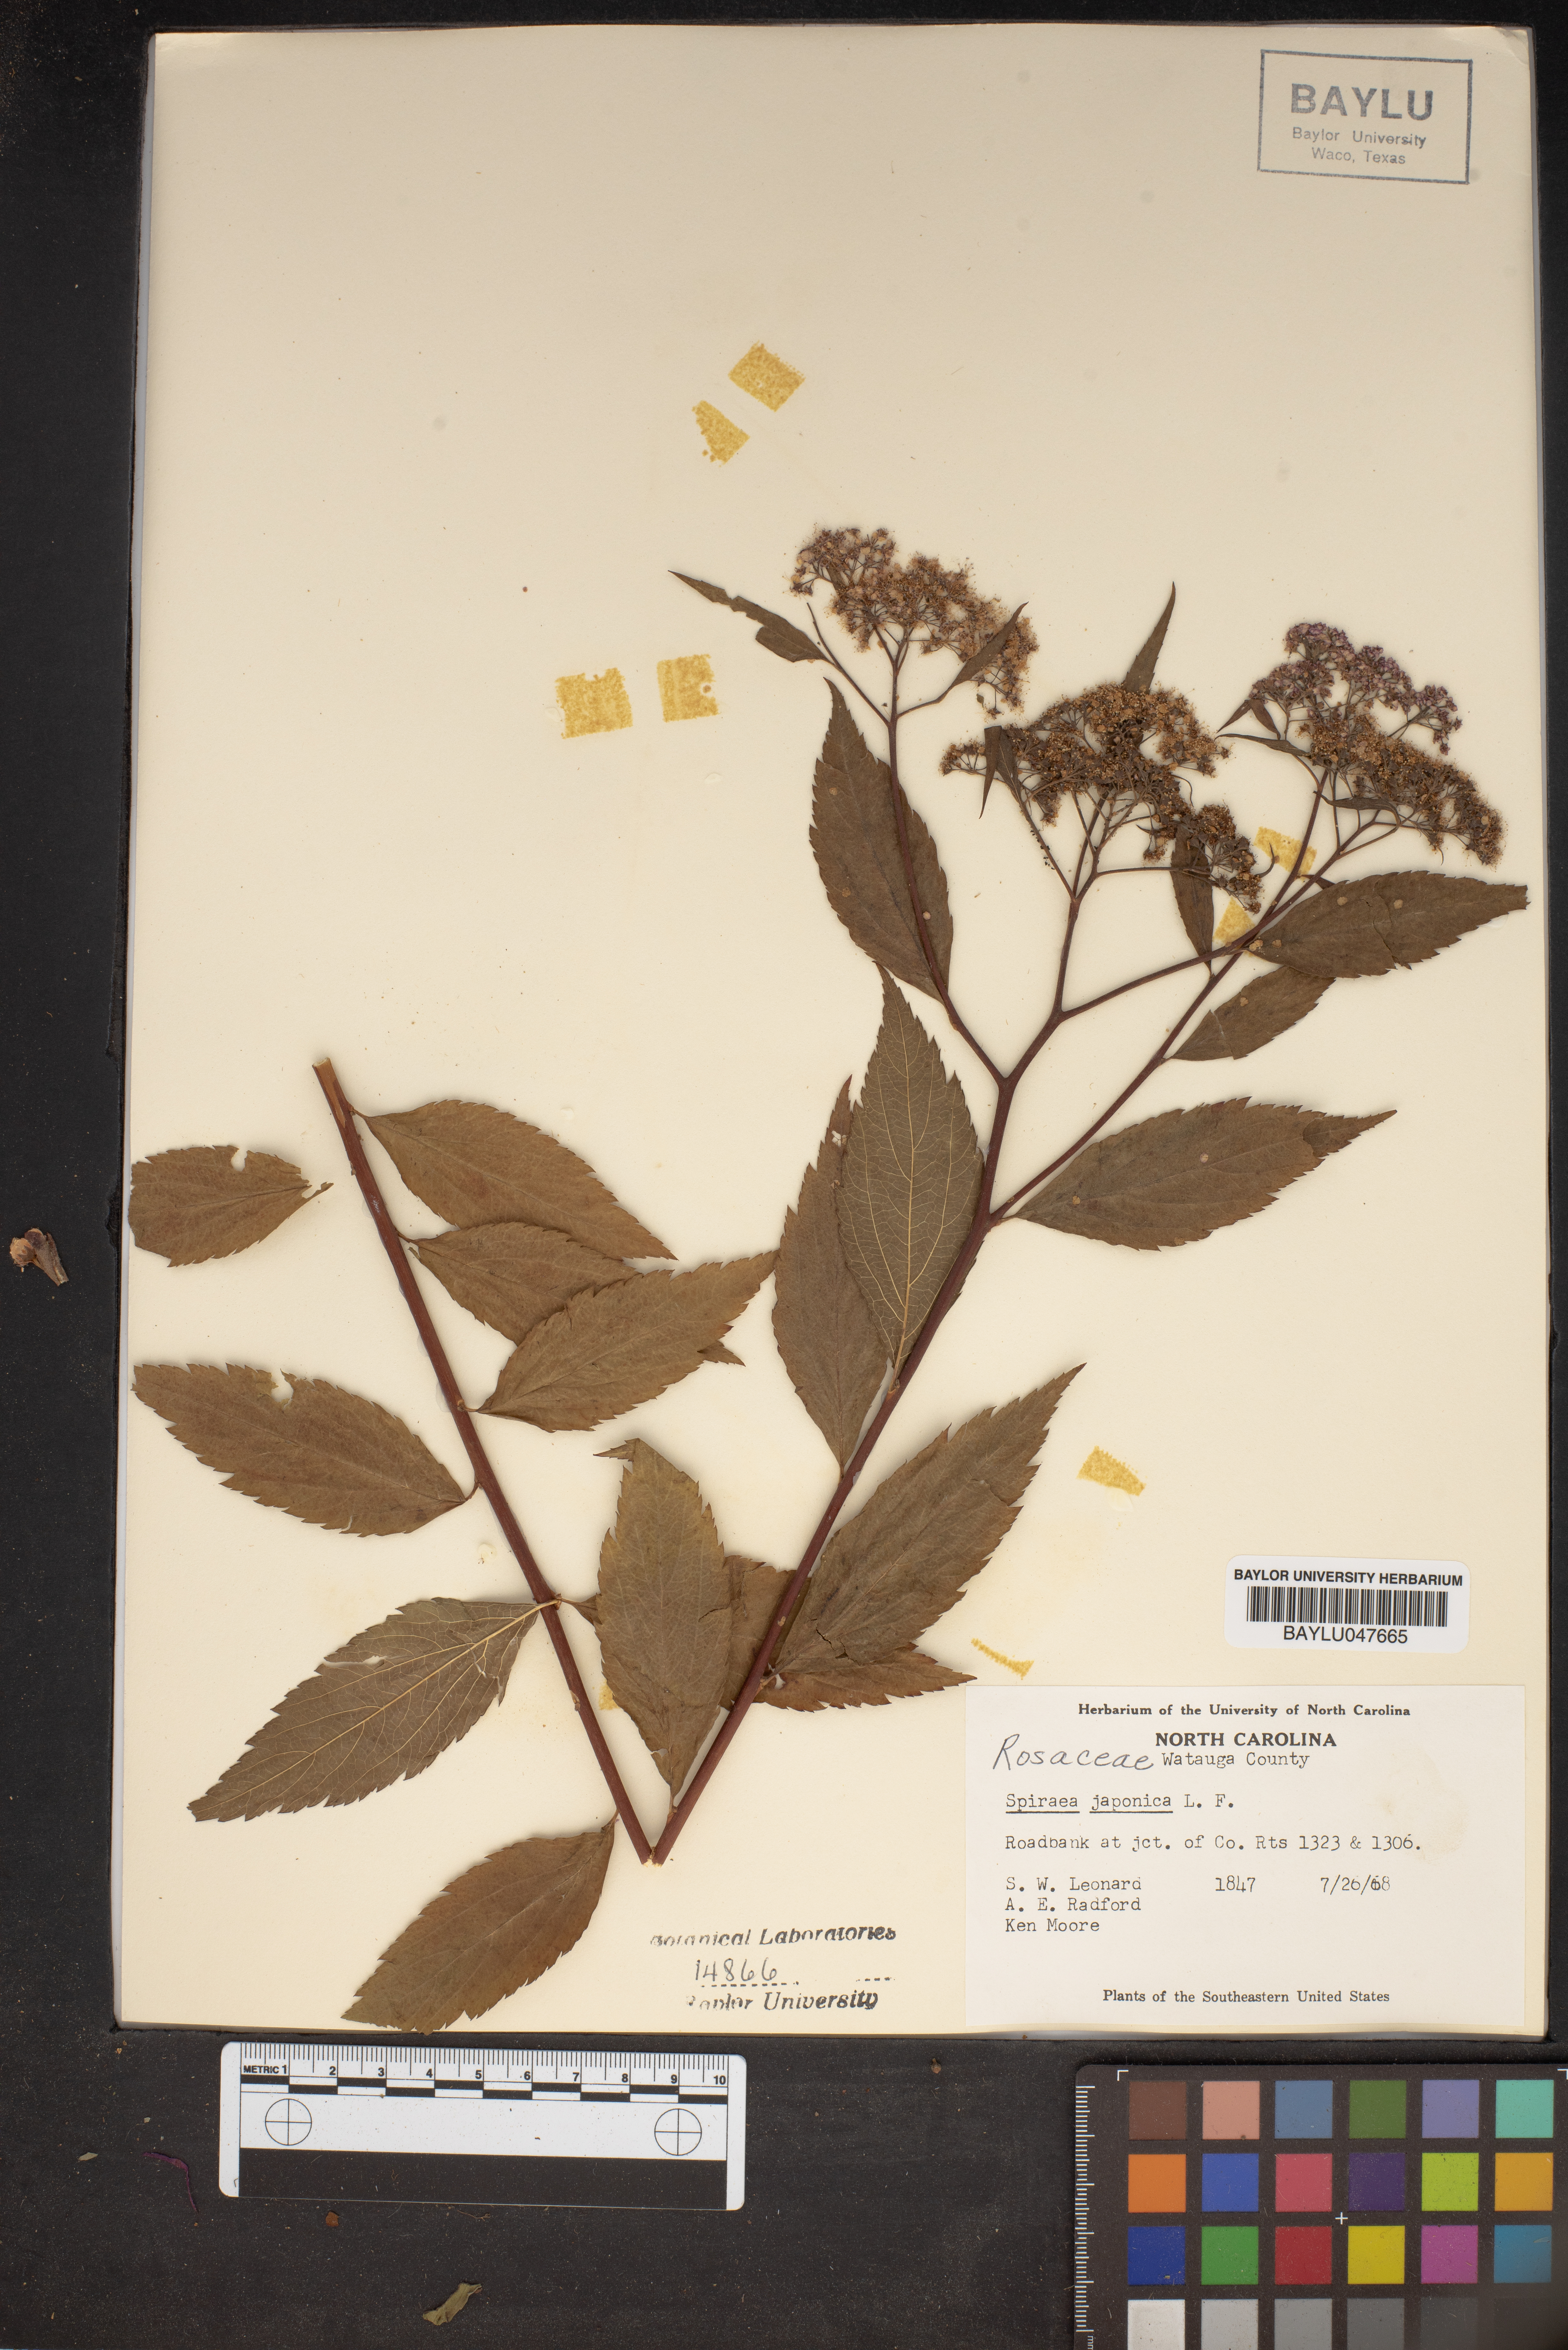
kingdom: Plantae
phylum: Tracheophyta
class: Magnoliopsida
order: Rosales
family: Rosaceae
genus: Spiraea
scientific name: Spiraea japonica
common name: Japanese spiraea
